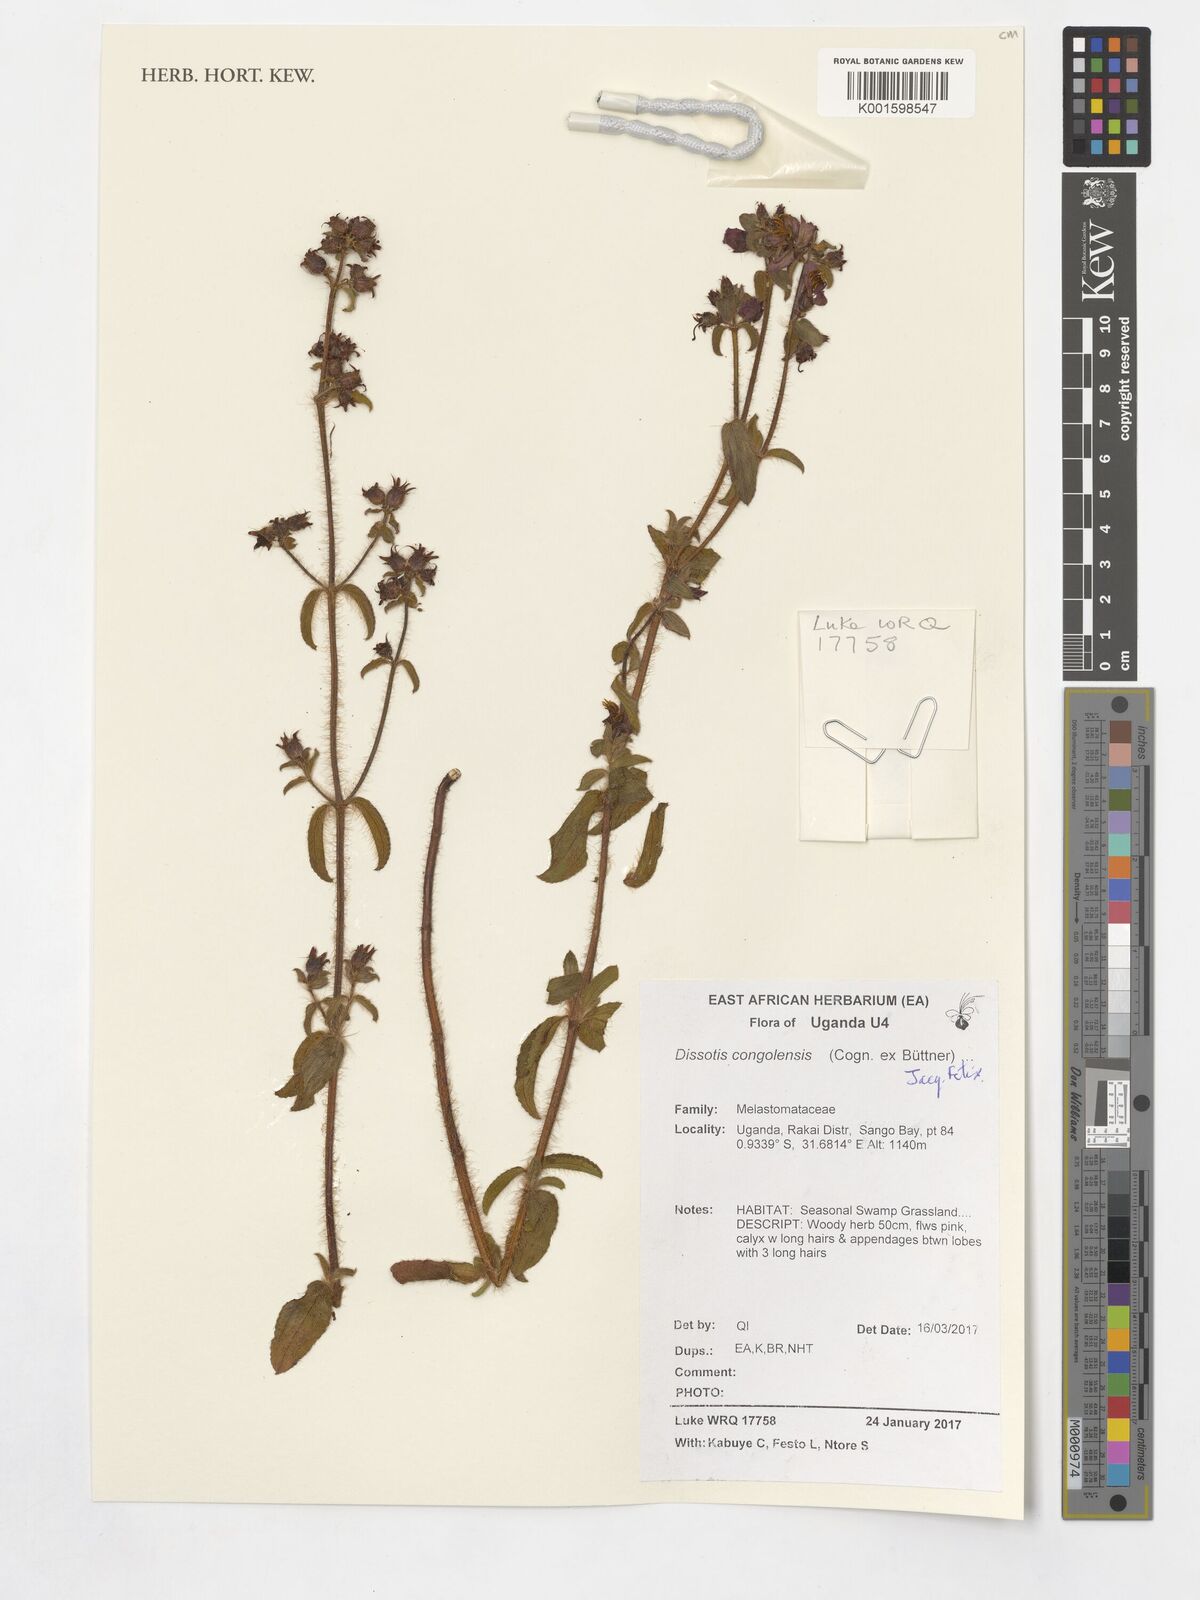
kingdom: Plantae
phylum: Tracheophyta
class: Magnoliopsida
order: Myrtales
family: Melastomataceae
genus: Nerophila
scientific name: Nerophila congolensis
